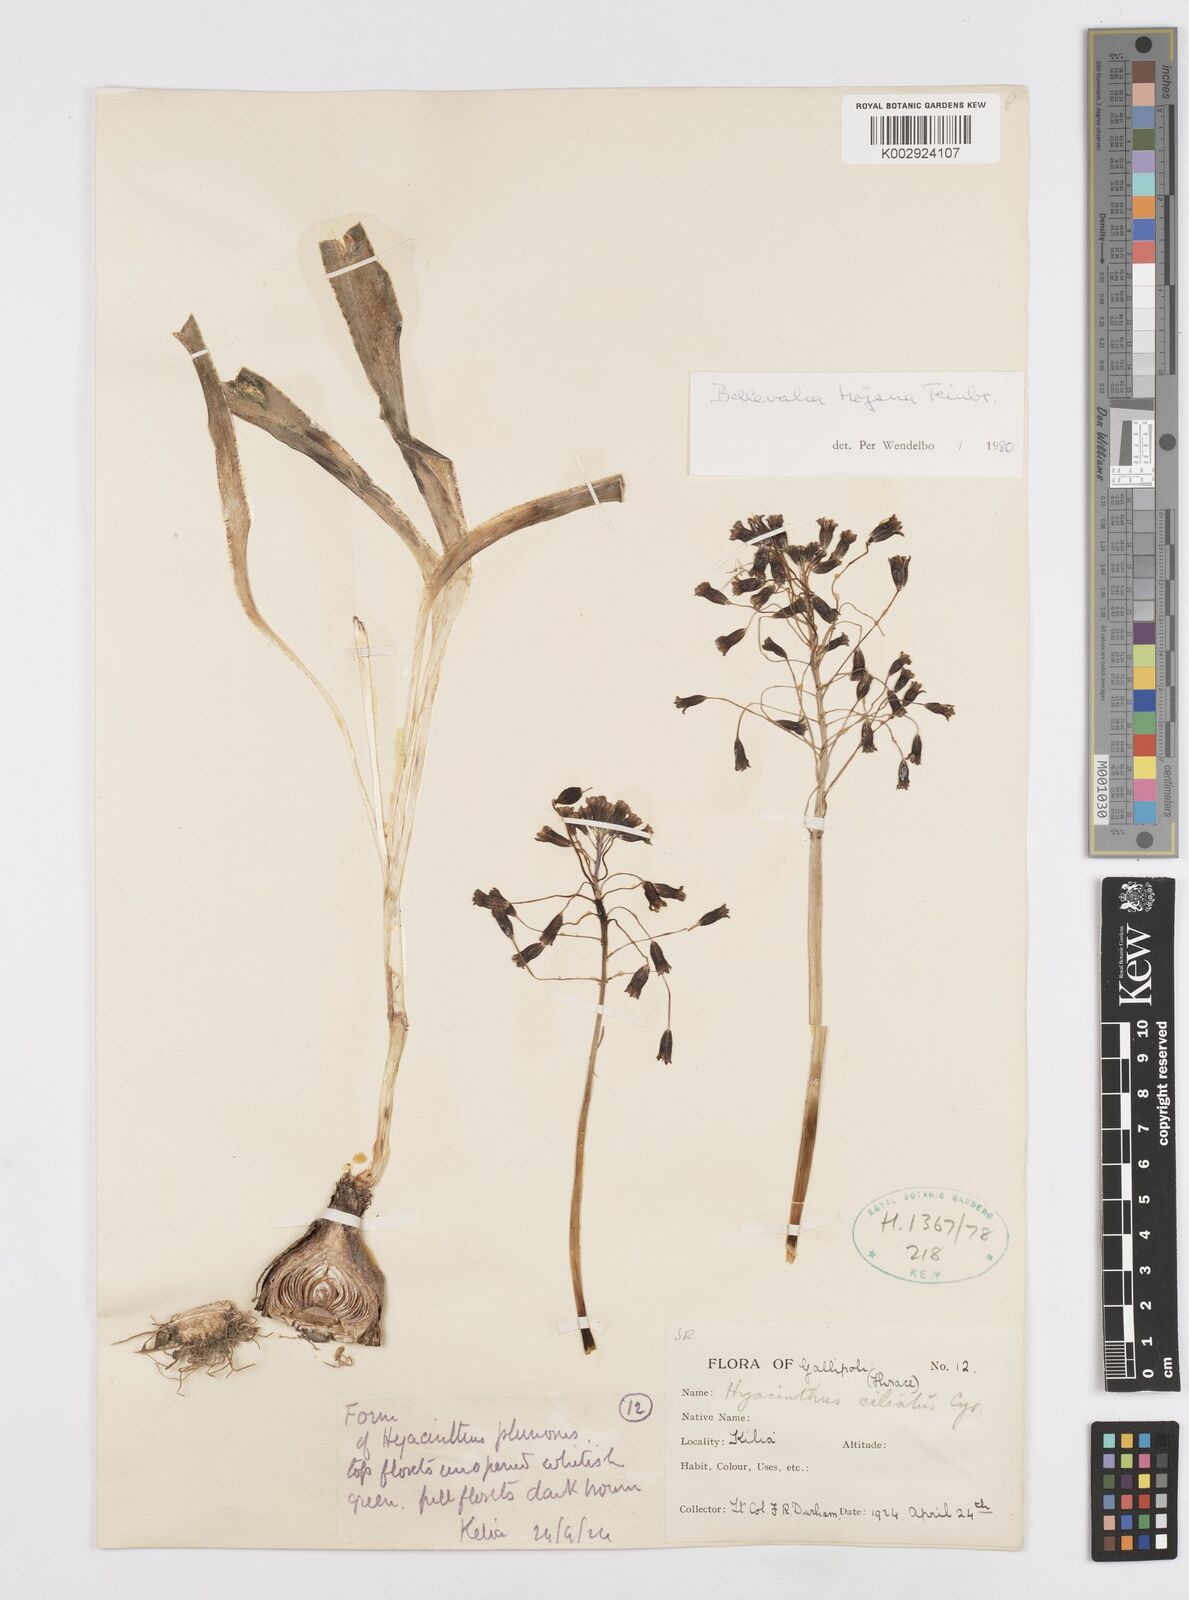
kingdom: Plantae
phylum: Tracheophyta
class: Liliopsida
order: Asparagales
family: Asparagaceae
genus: Bellevalia
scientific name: Bellevalia speciosa
